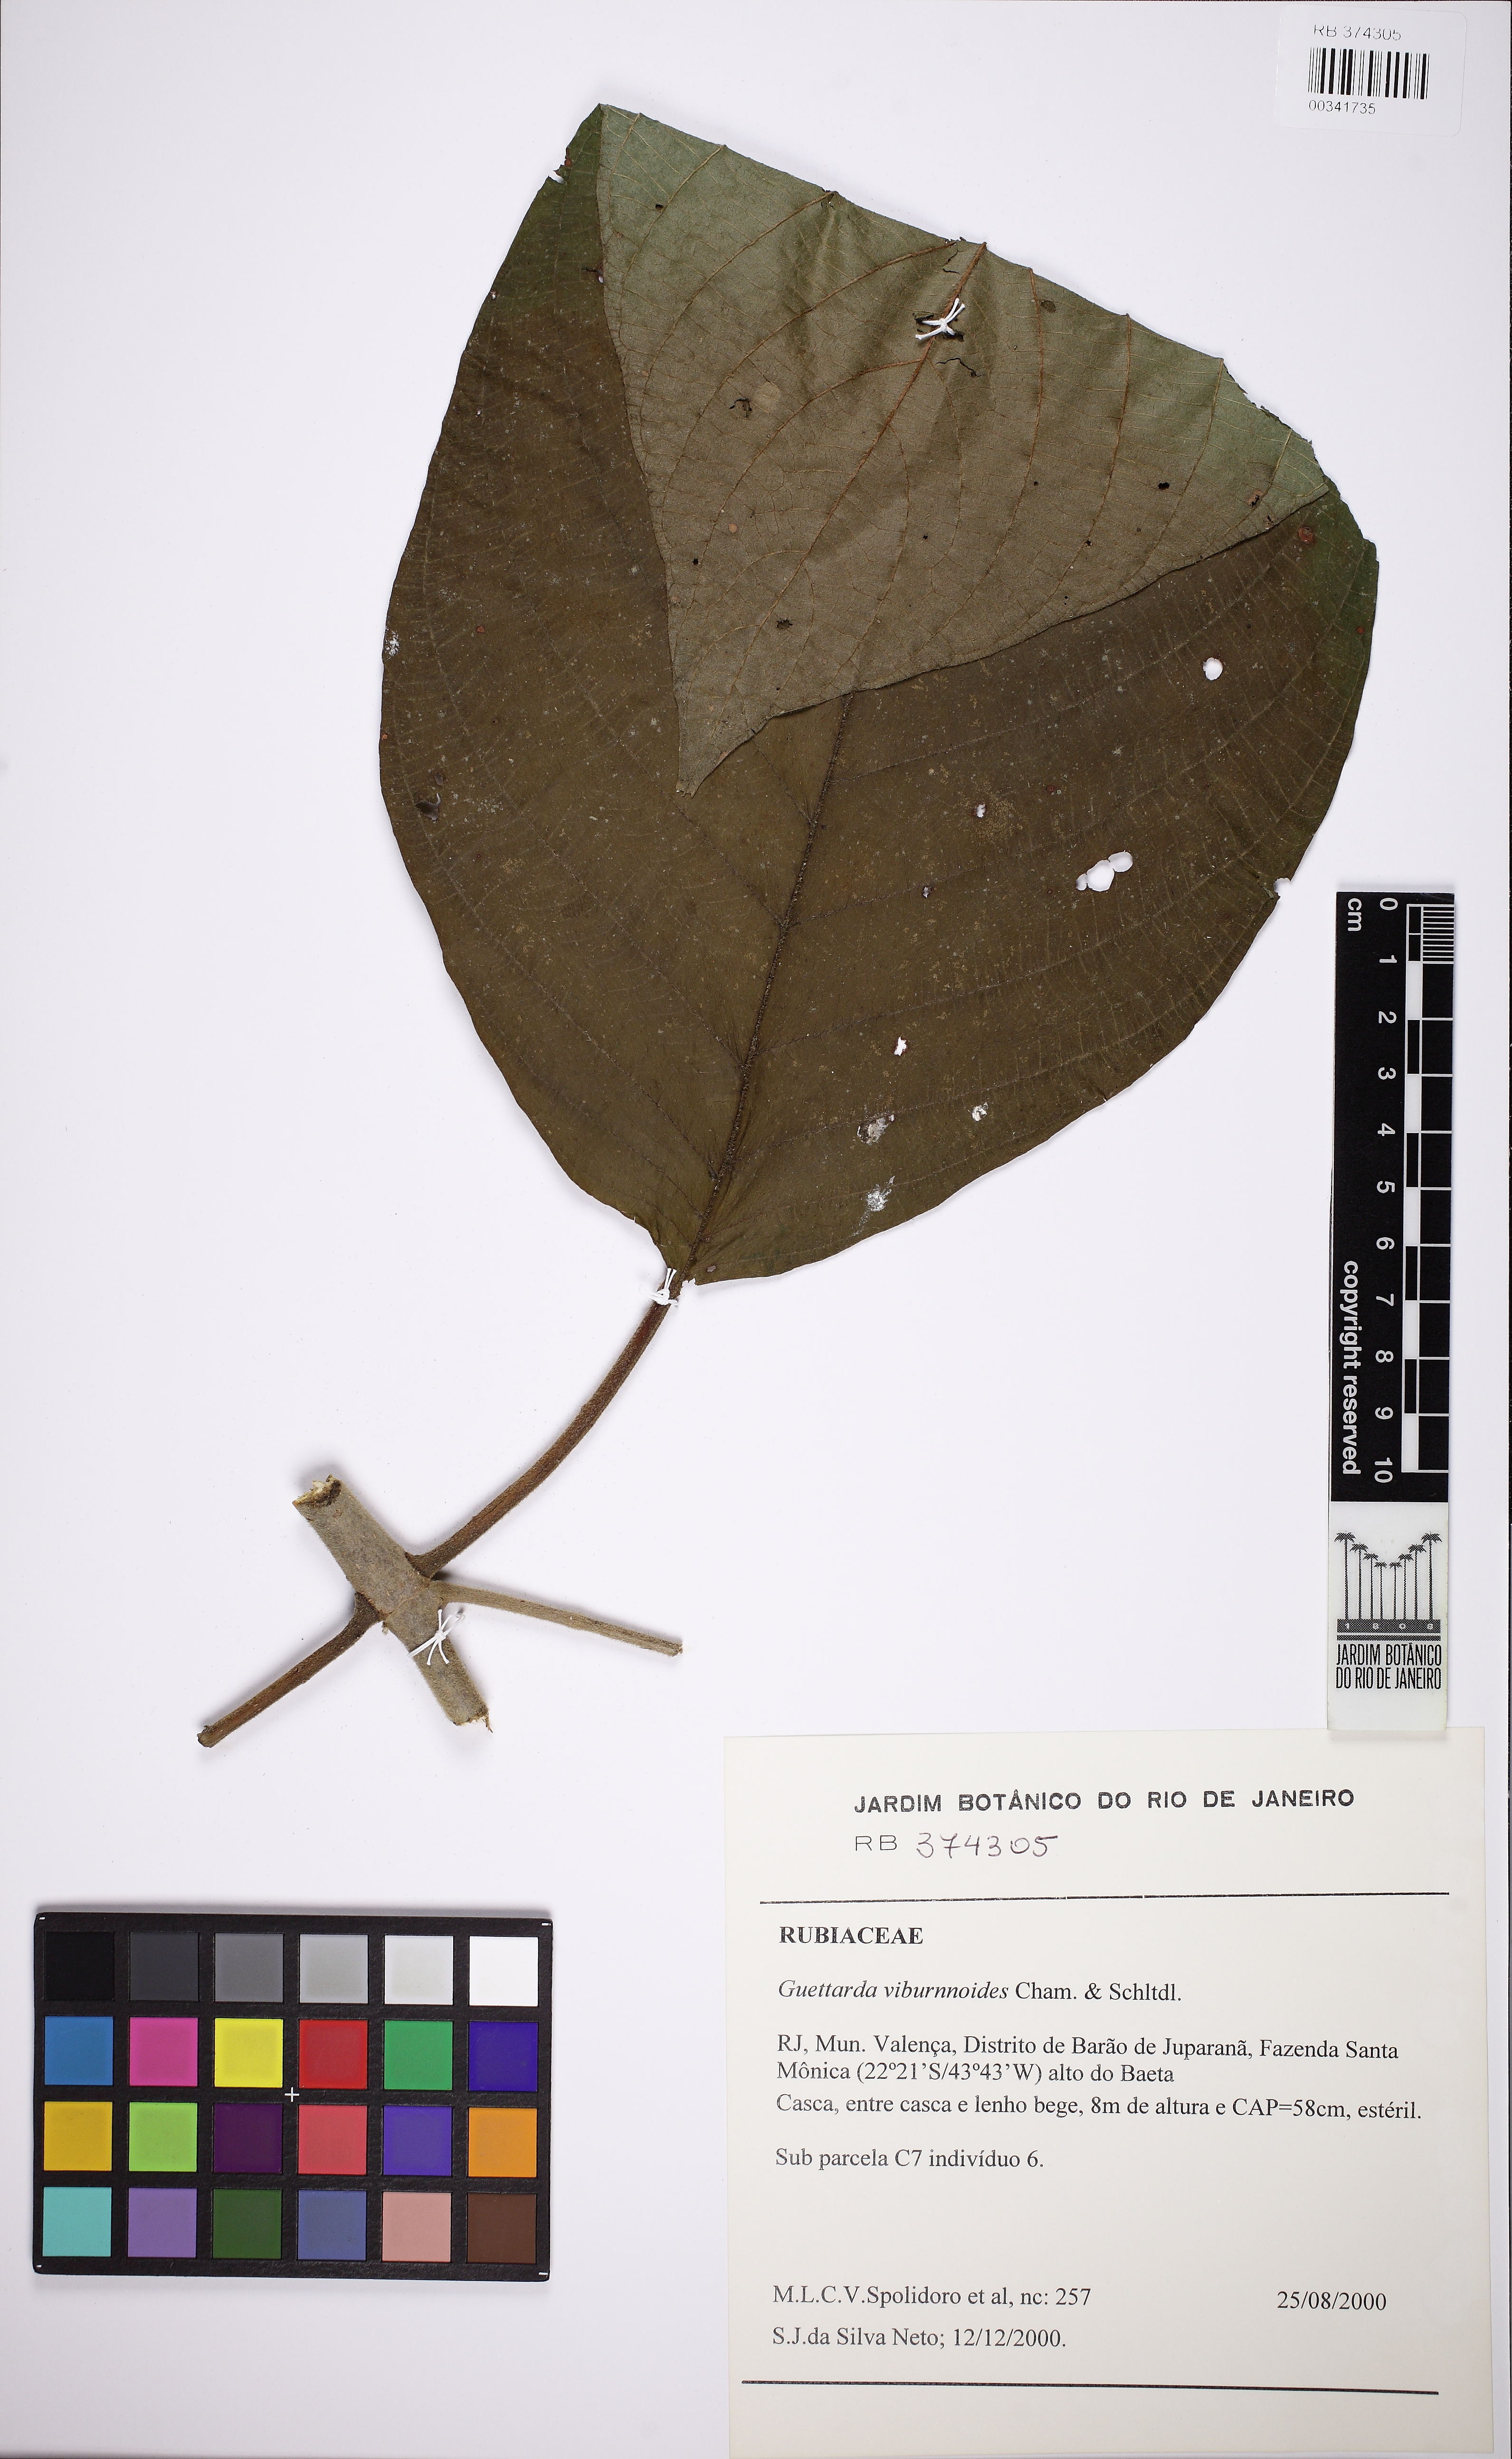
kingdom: Plantae
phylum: Tracheophyta
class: Magnoliopsida
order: Gentianales
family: Rubiaceae
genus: Guettarda
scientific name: Guettarda viburnoides
